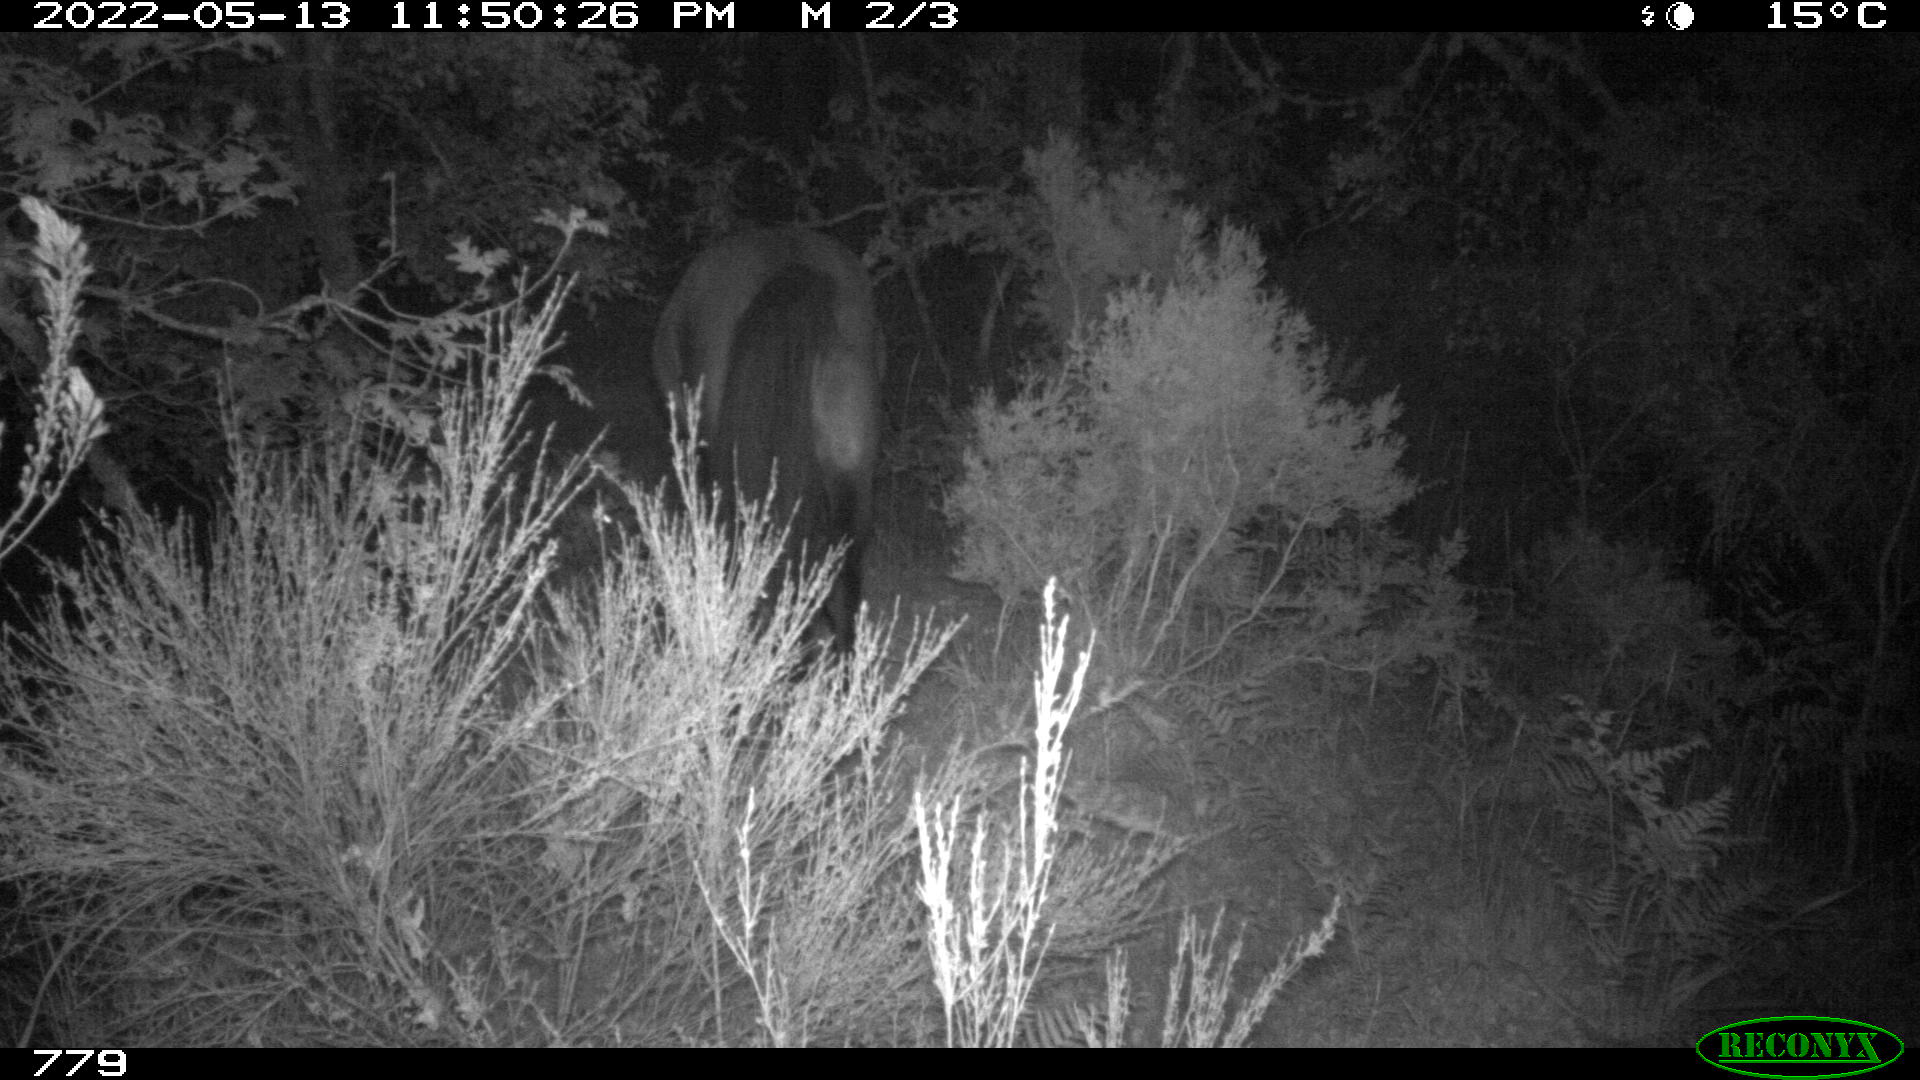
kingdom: Animalia
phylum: Chordata
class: Mammalia
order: Perissodactyla
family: Equidae
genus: Equus
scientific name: Equus caballus
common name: Horse
